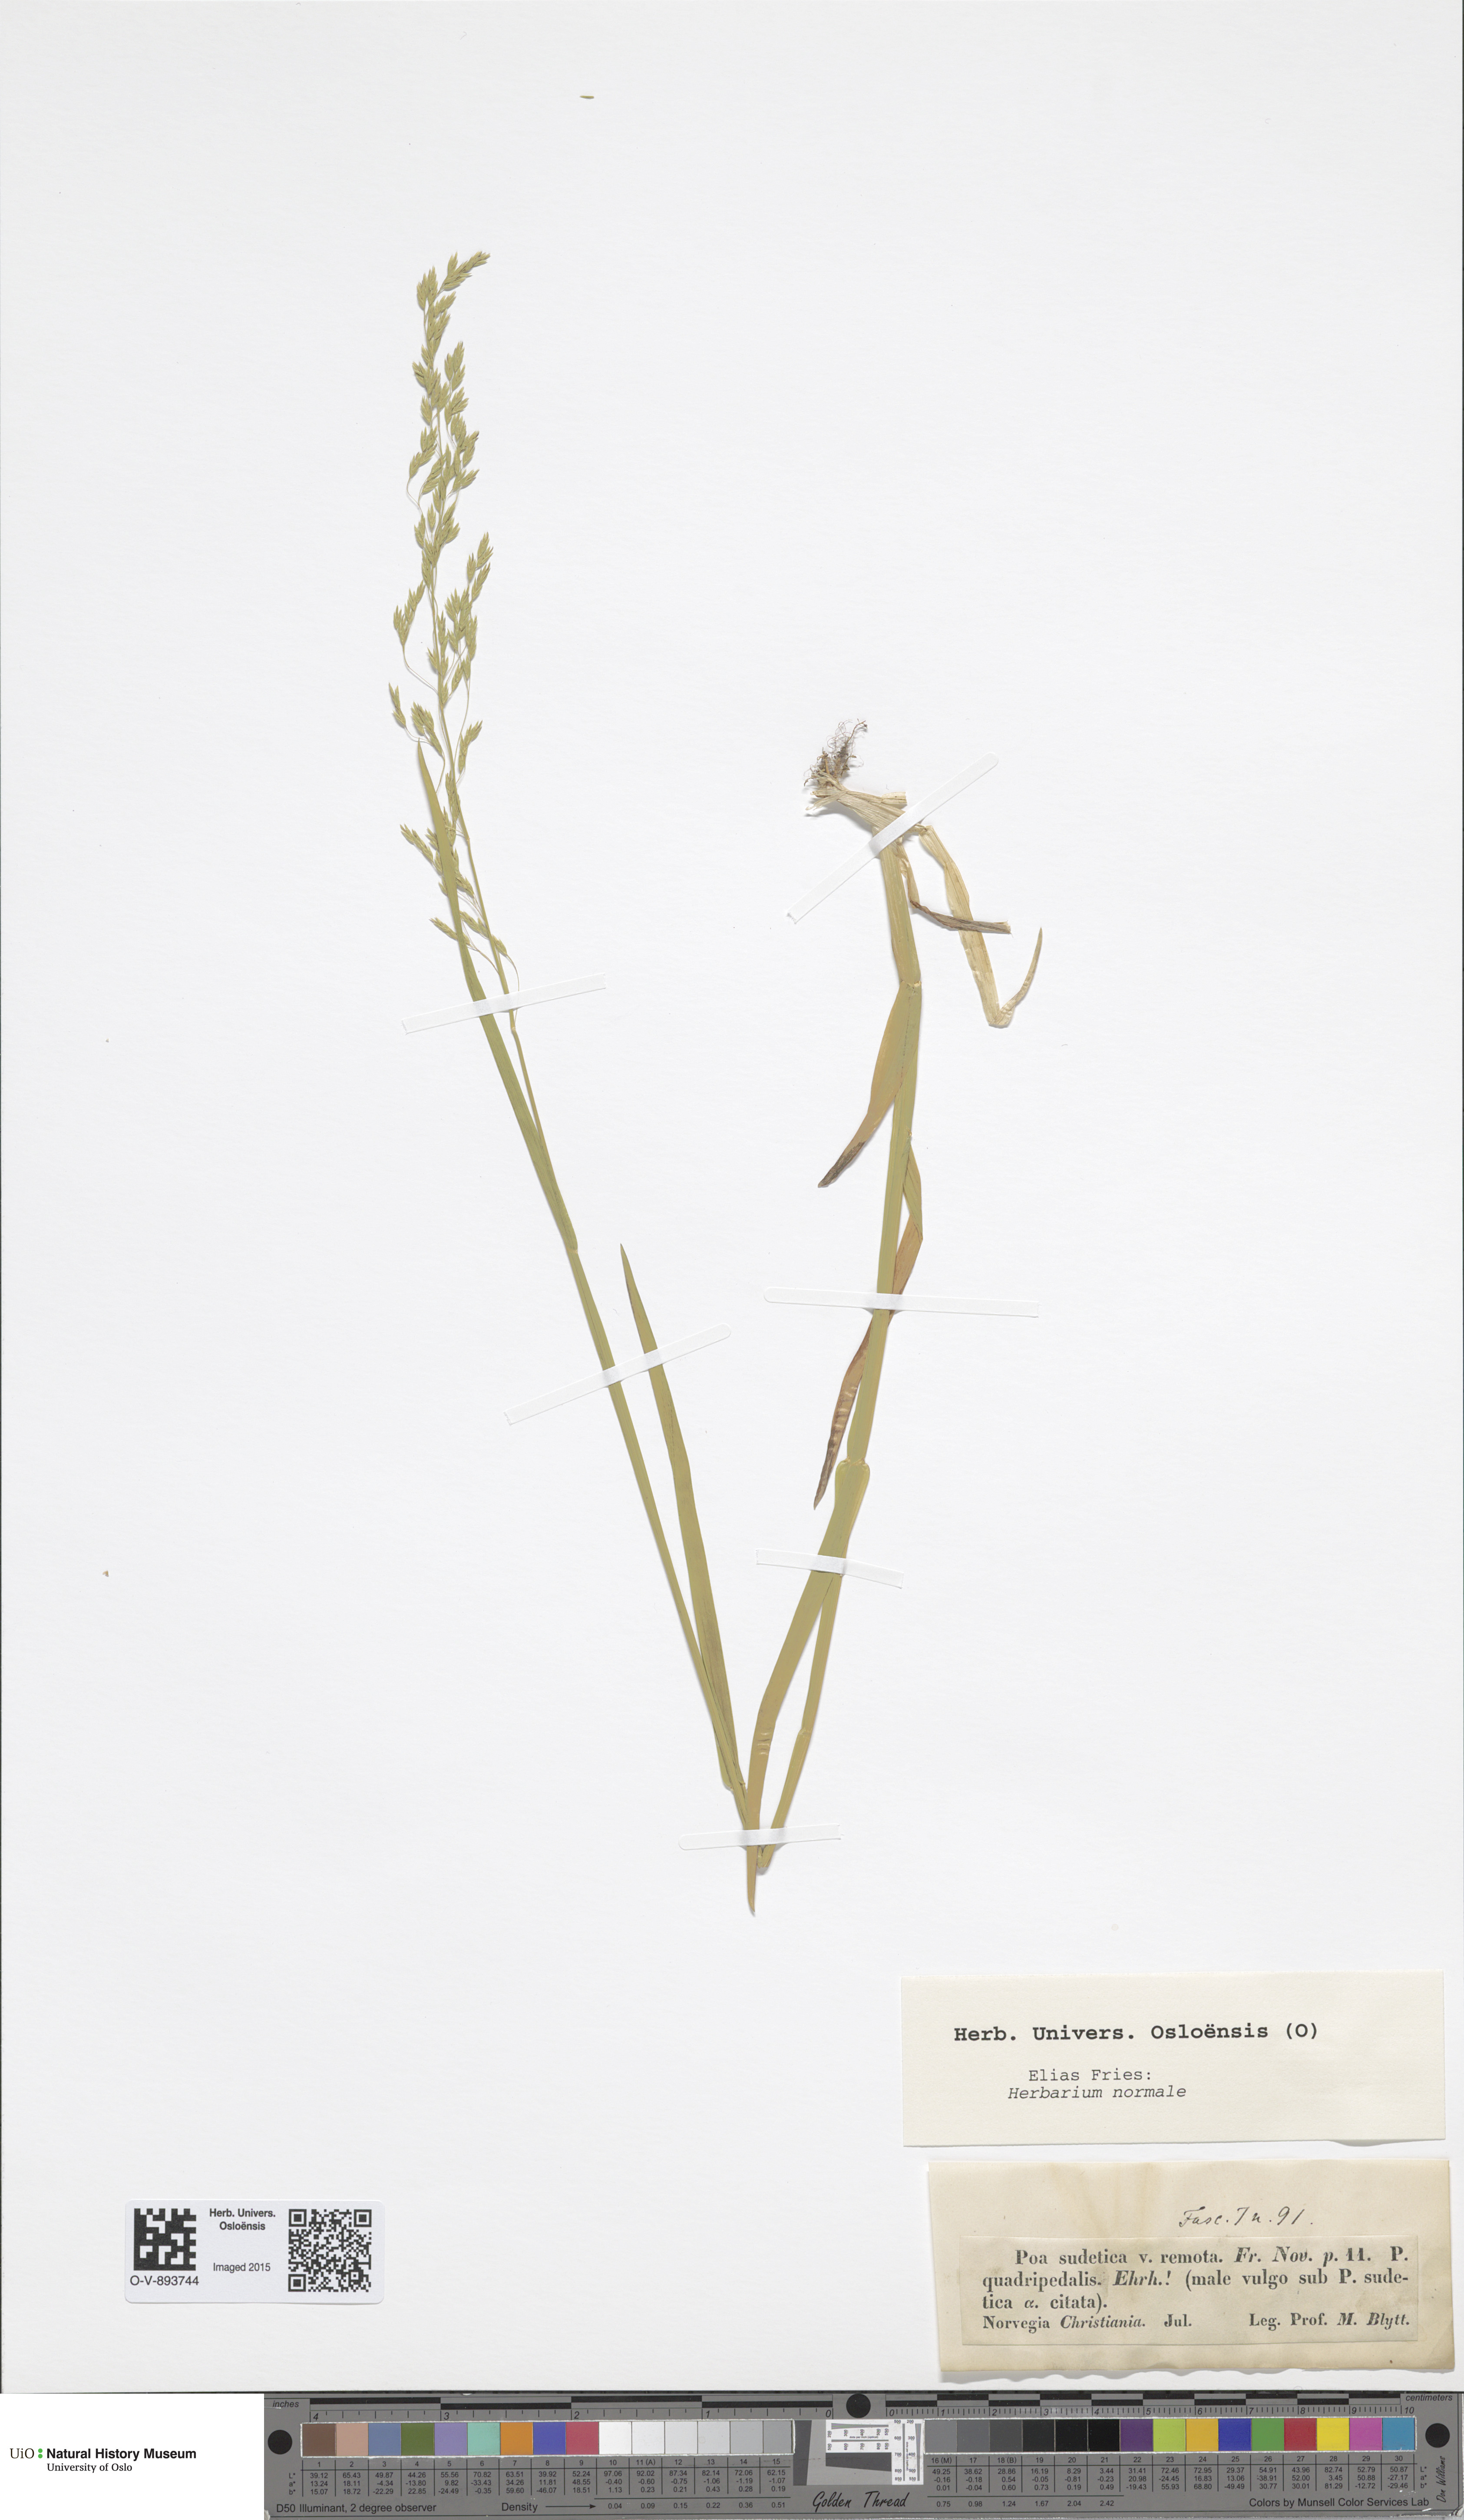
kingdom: Plantae
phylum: Tracheophyta
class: Liliopsida
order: Poales
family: Poaceae
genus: Poa
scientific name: Poa remota
